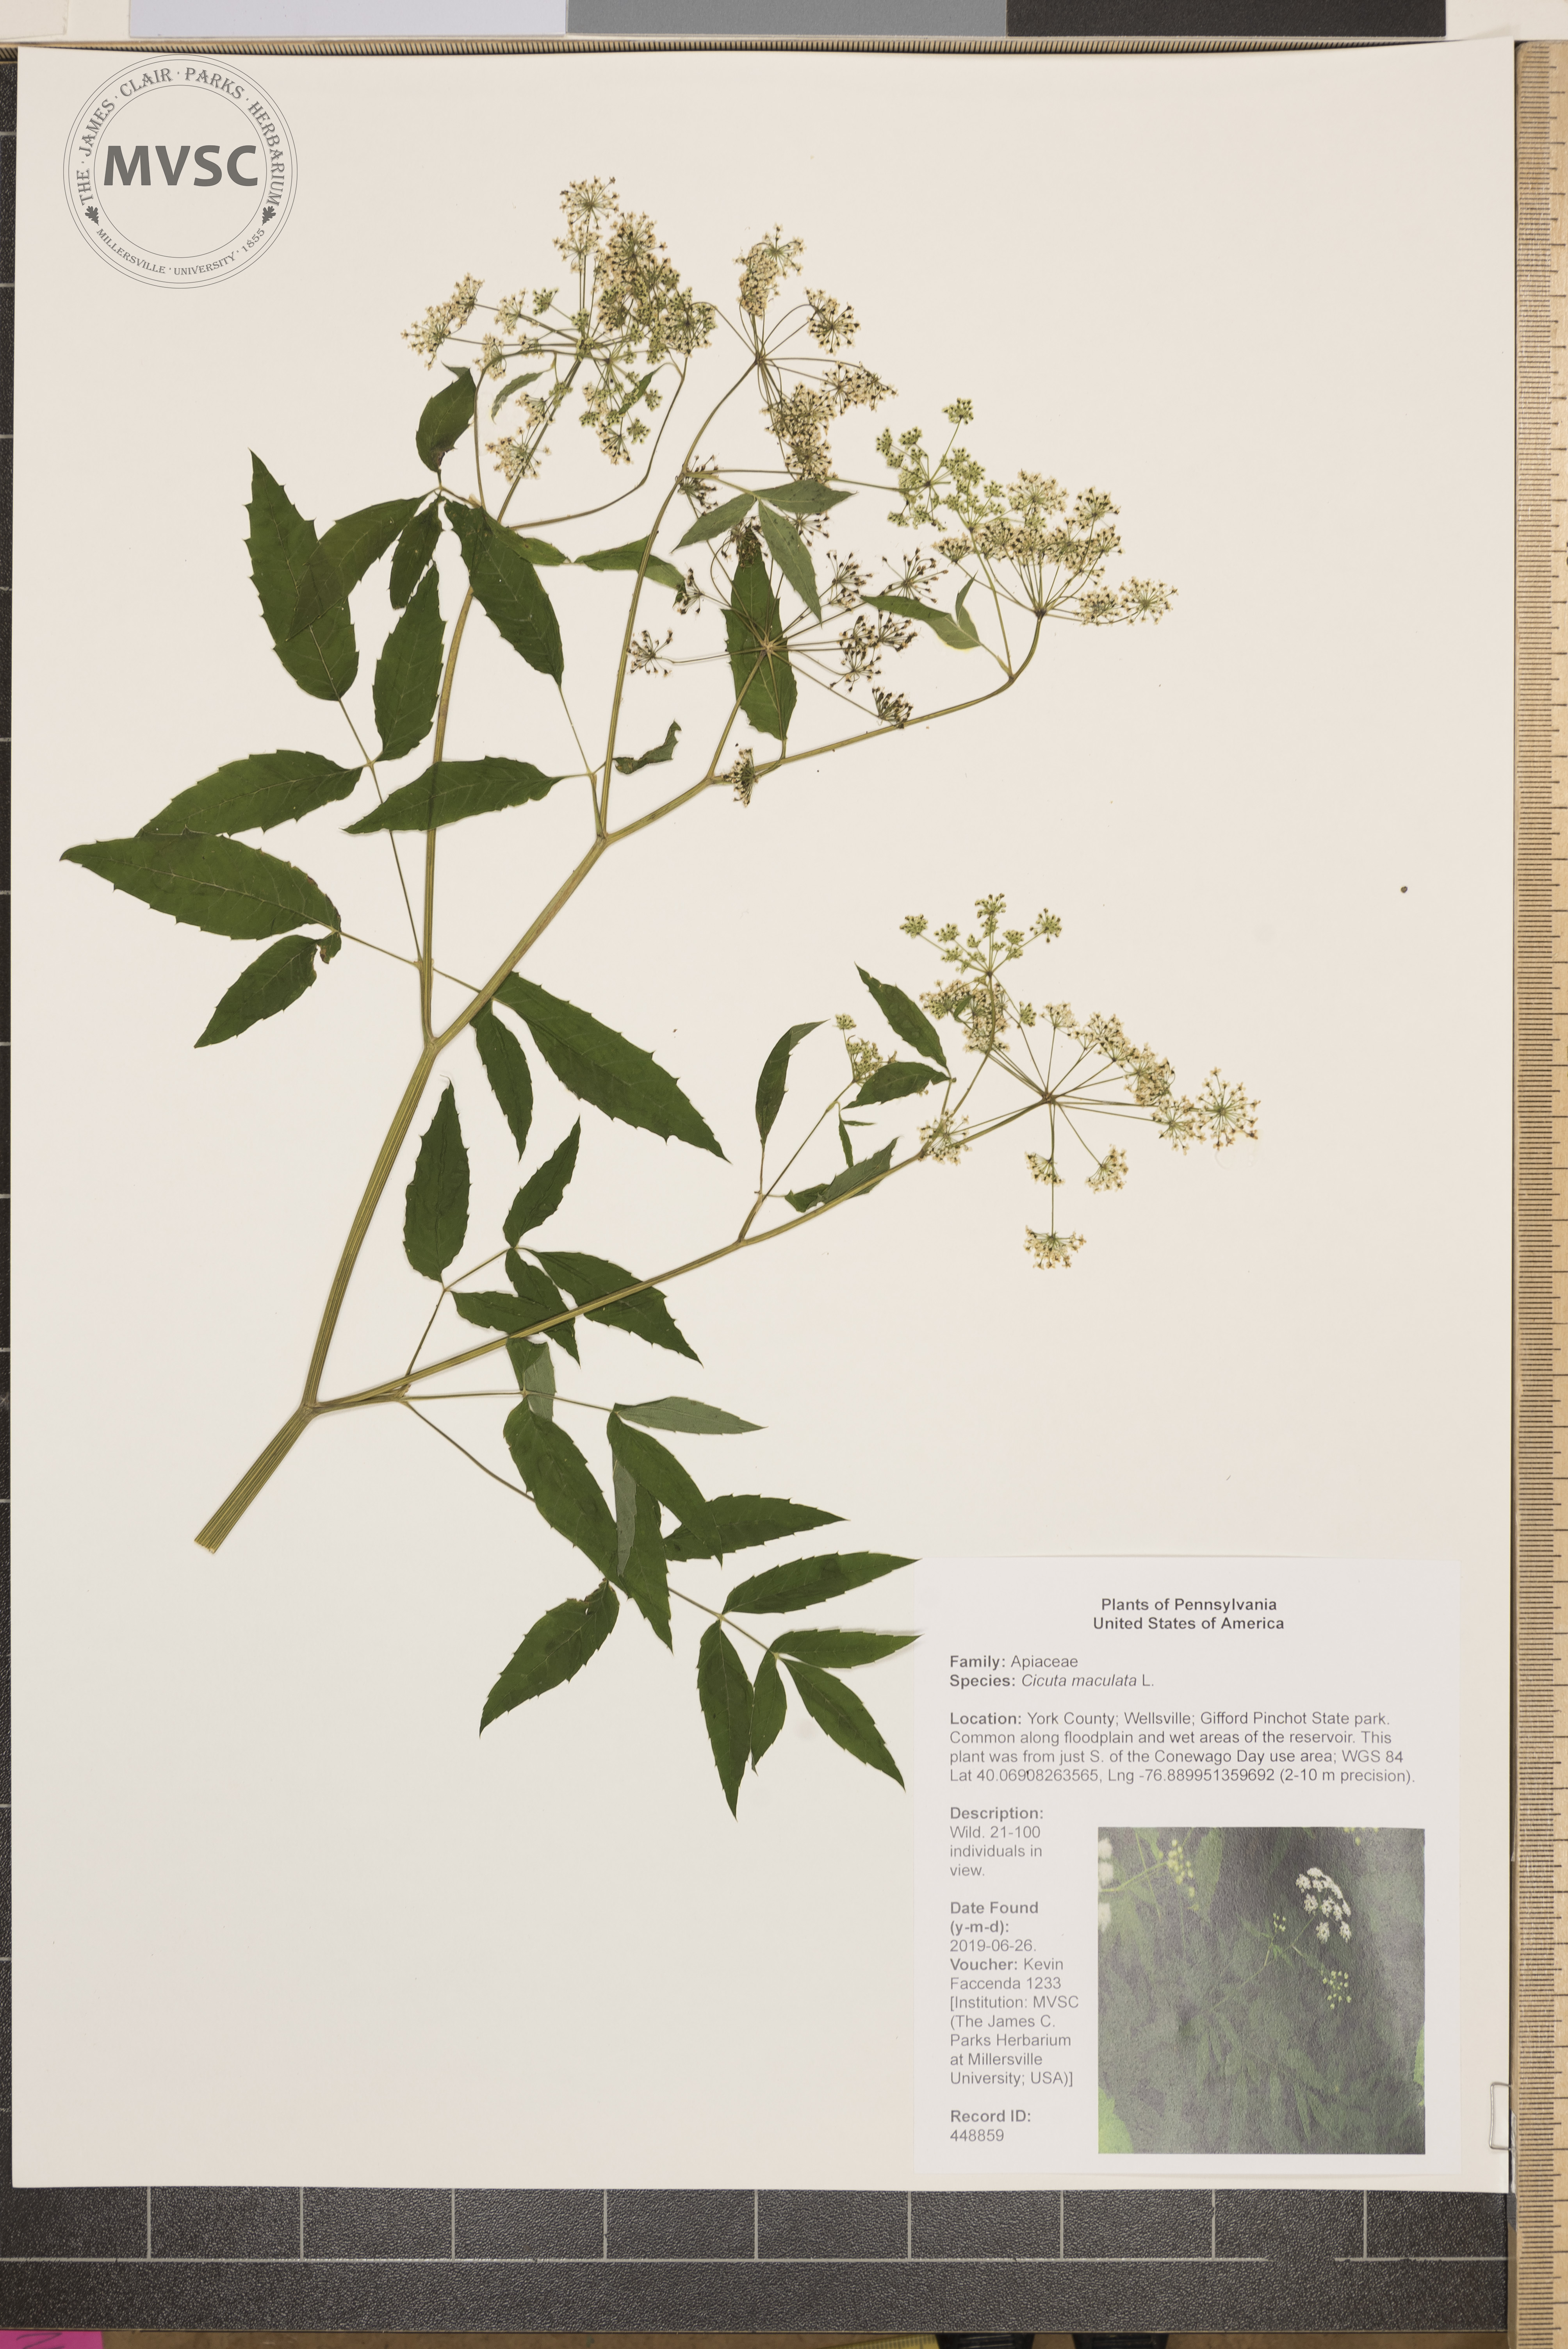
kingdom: Plantae
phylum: Tracheophyta
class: Magnoliopsida
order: Apiales
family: Apiaceae
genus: Cicuta
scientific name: Cicuta maculata
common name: Spotted cowbane
